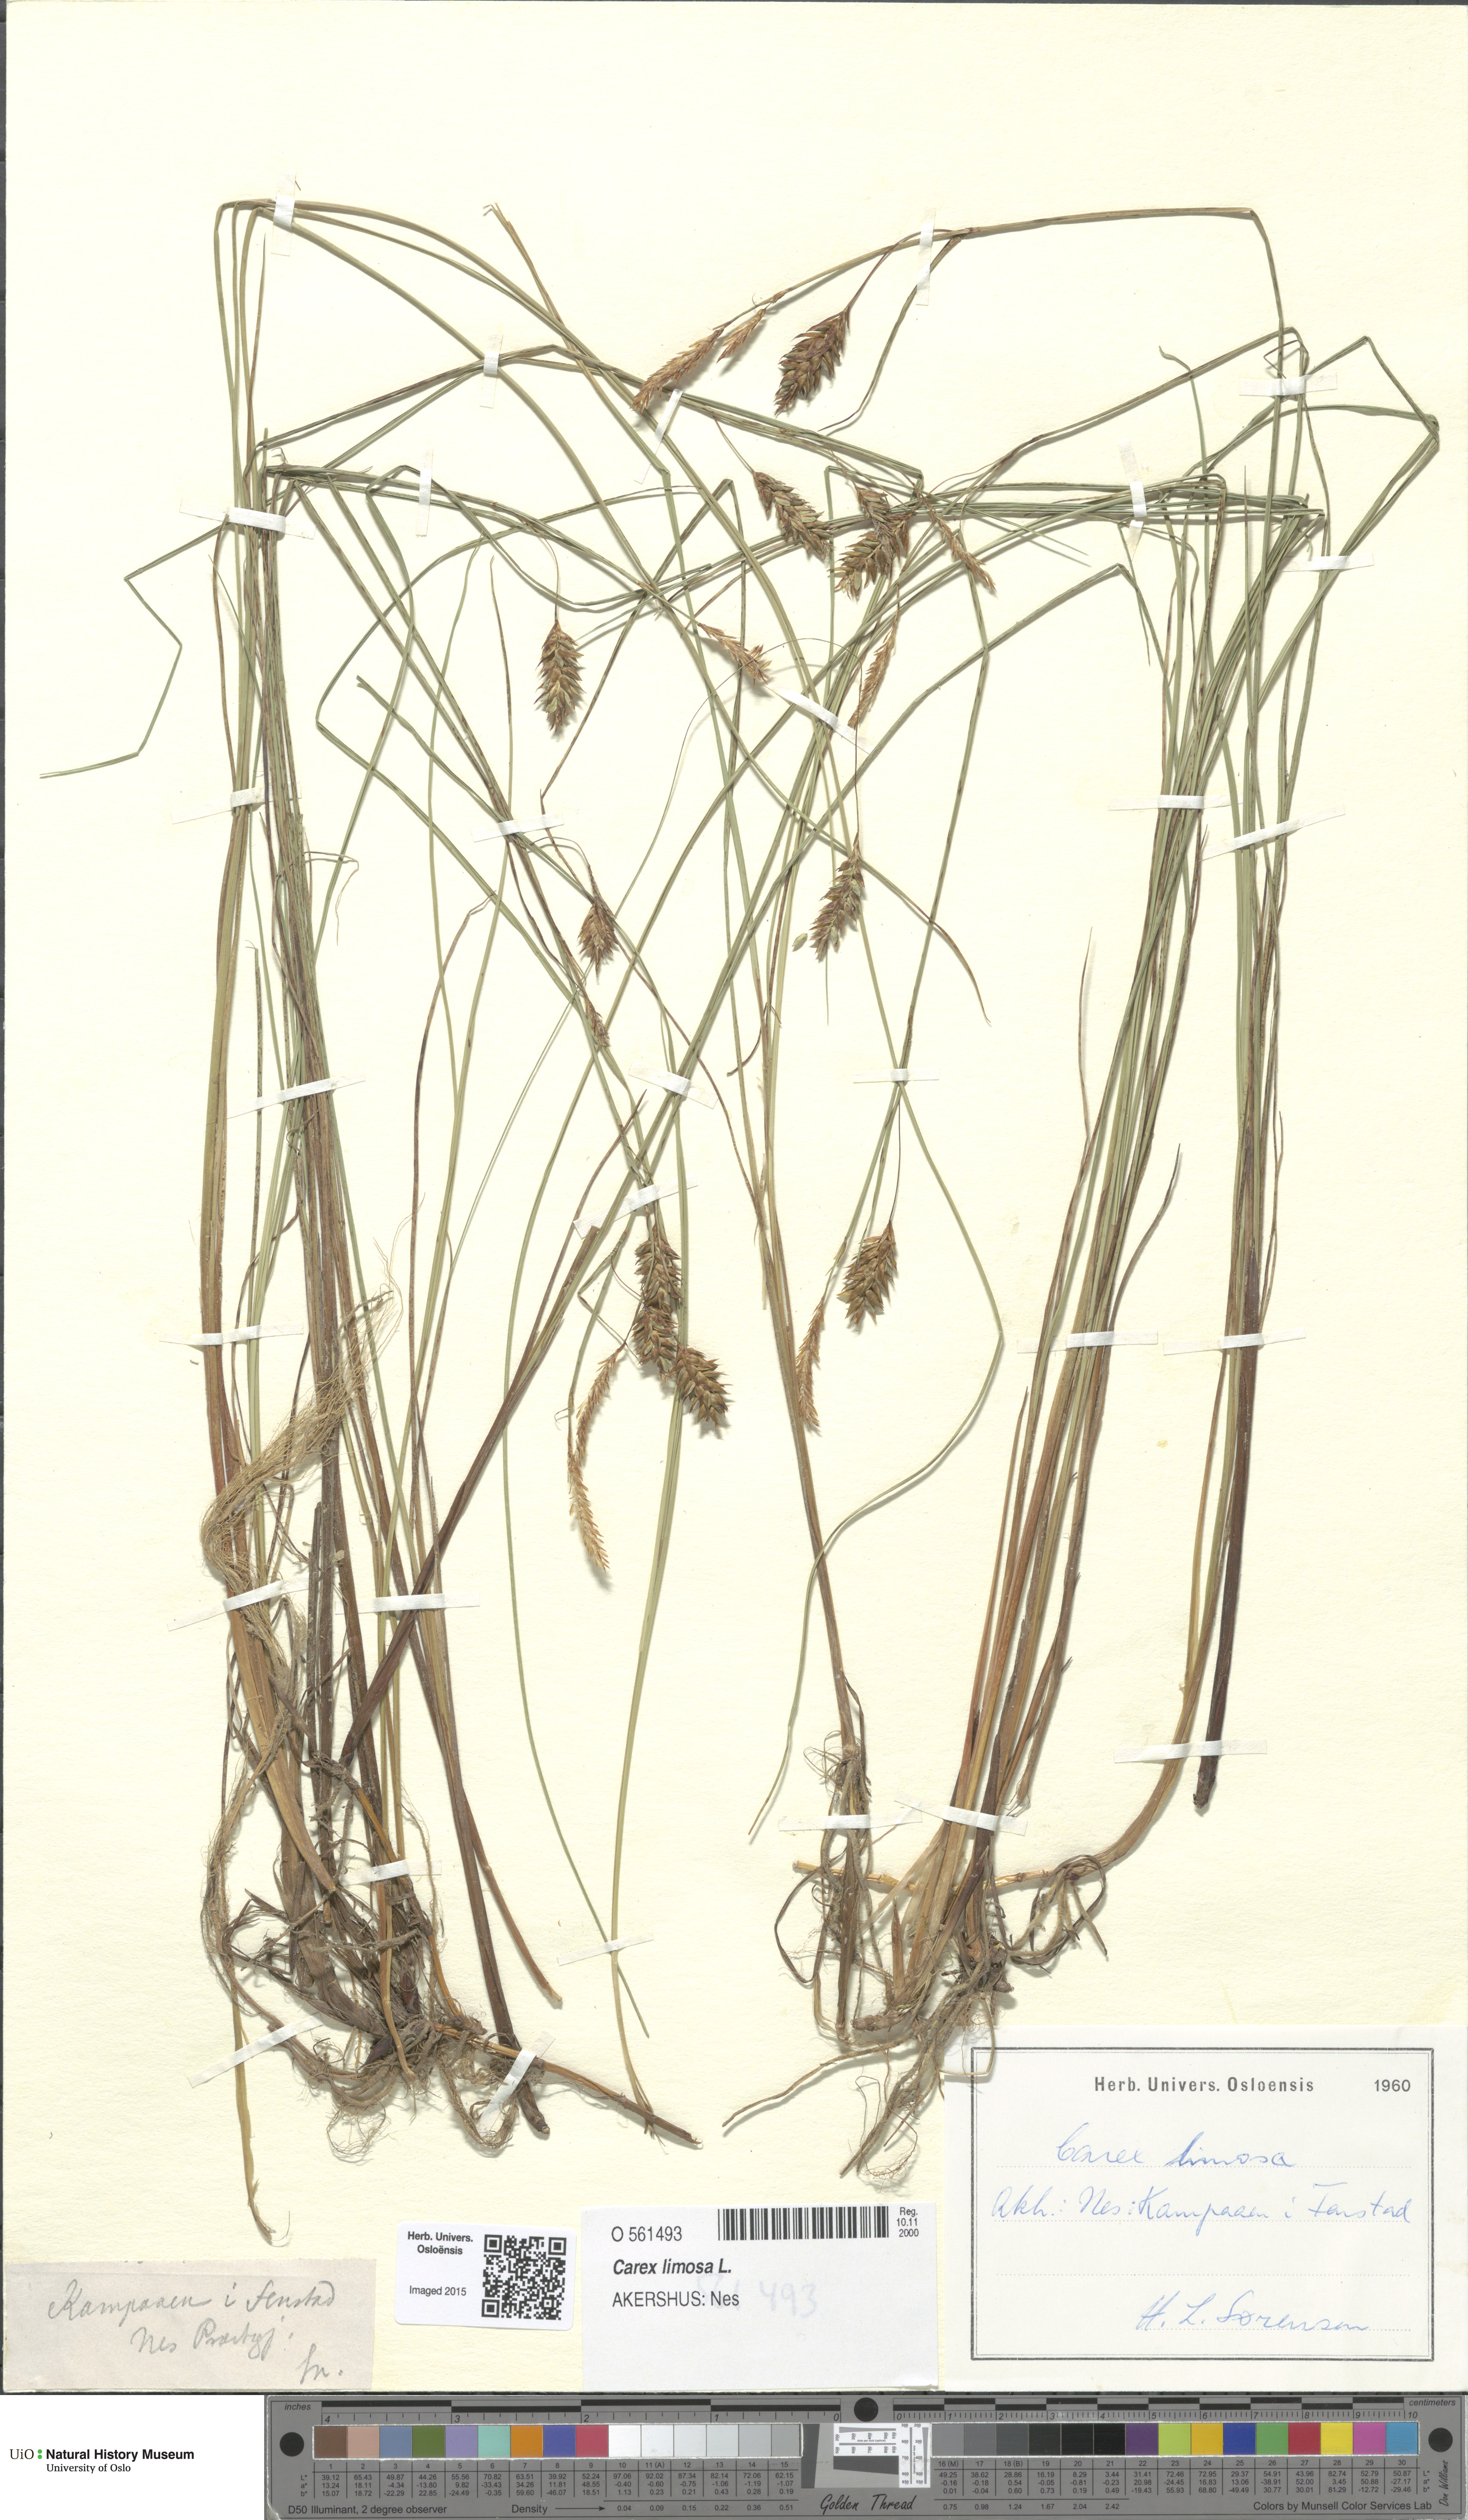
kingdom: Plantae
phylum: Tracheophyta
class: Liliopsida
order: Poales
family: Cyperaceae
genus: Carex
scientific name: Carex limosa
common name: Bog sedge
